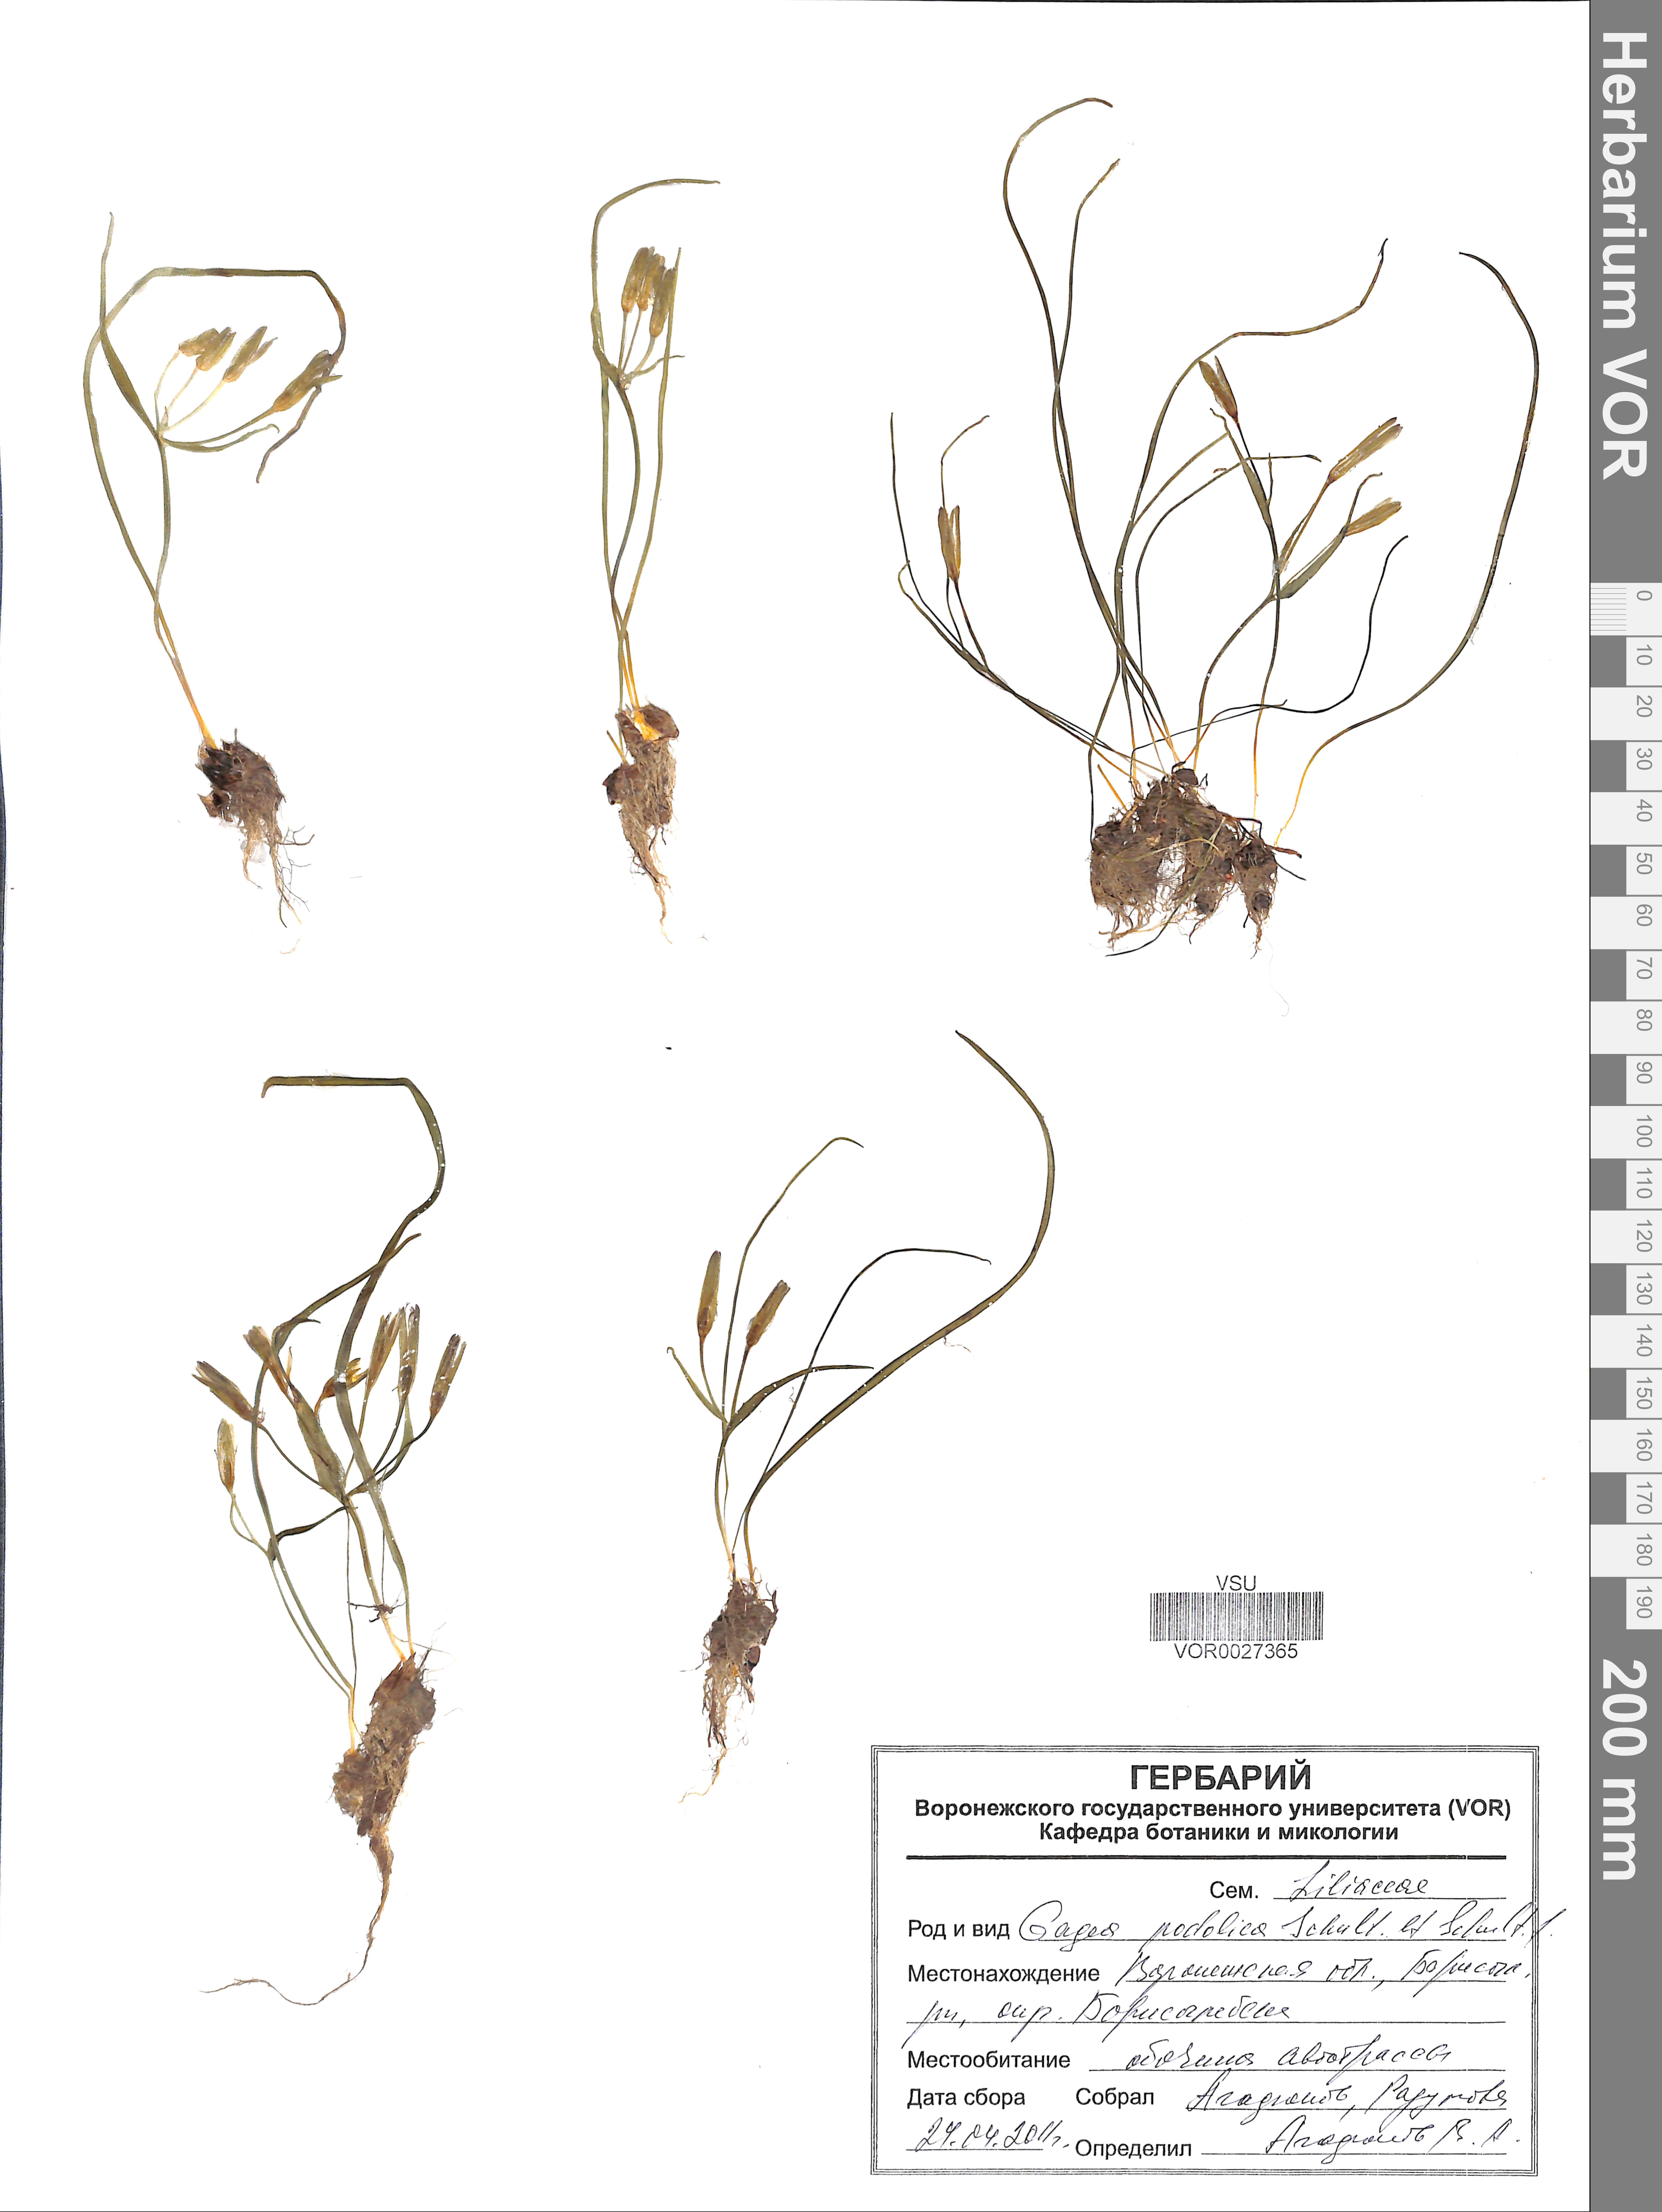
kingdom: Plantae
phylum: Tracheophyta
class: Liliopsida
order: Liliales
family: Liliaceae
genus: Gagea
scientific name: Gagea podolica
